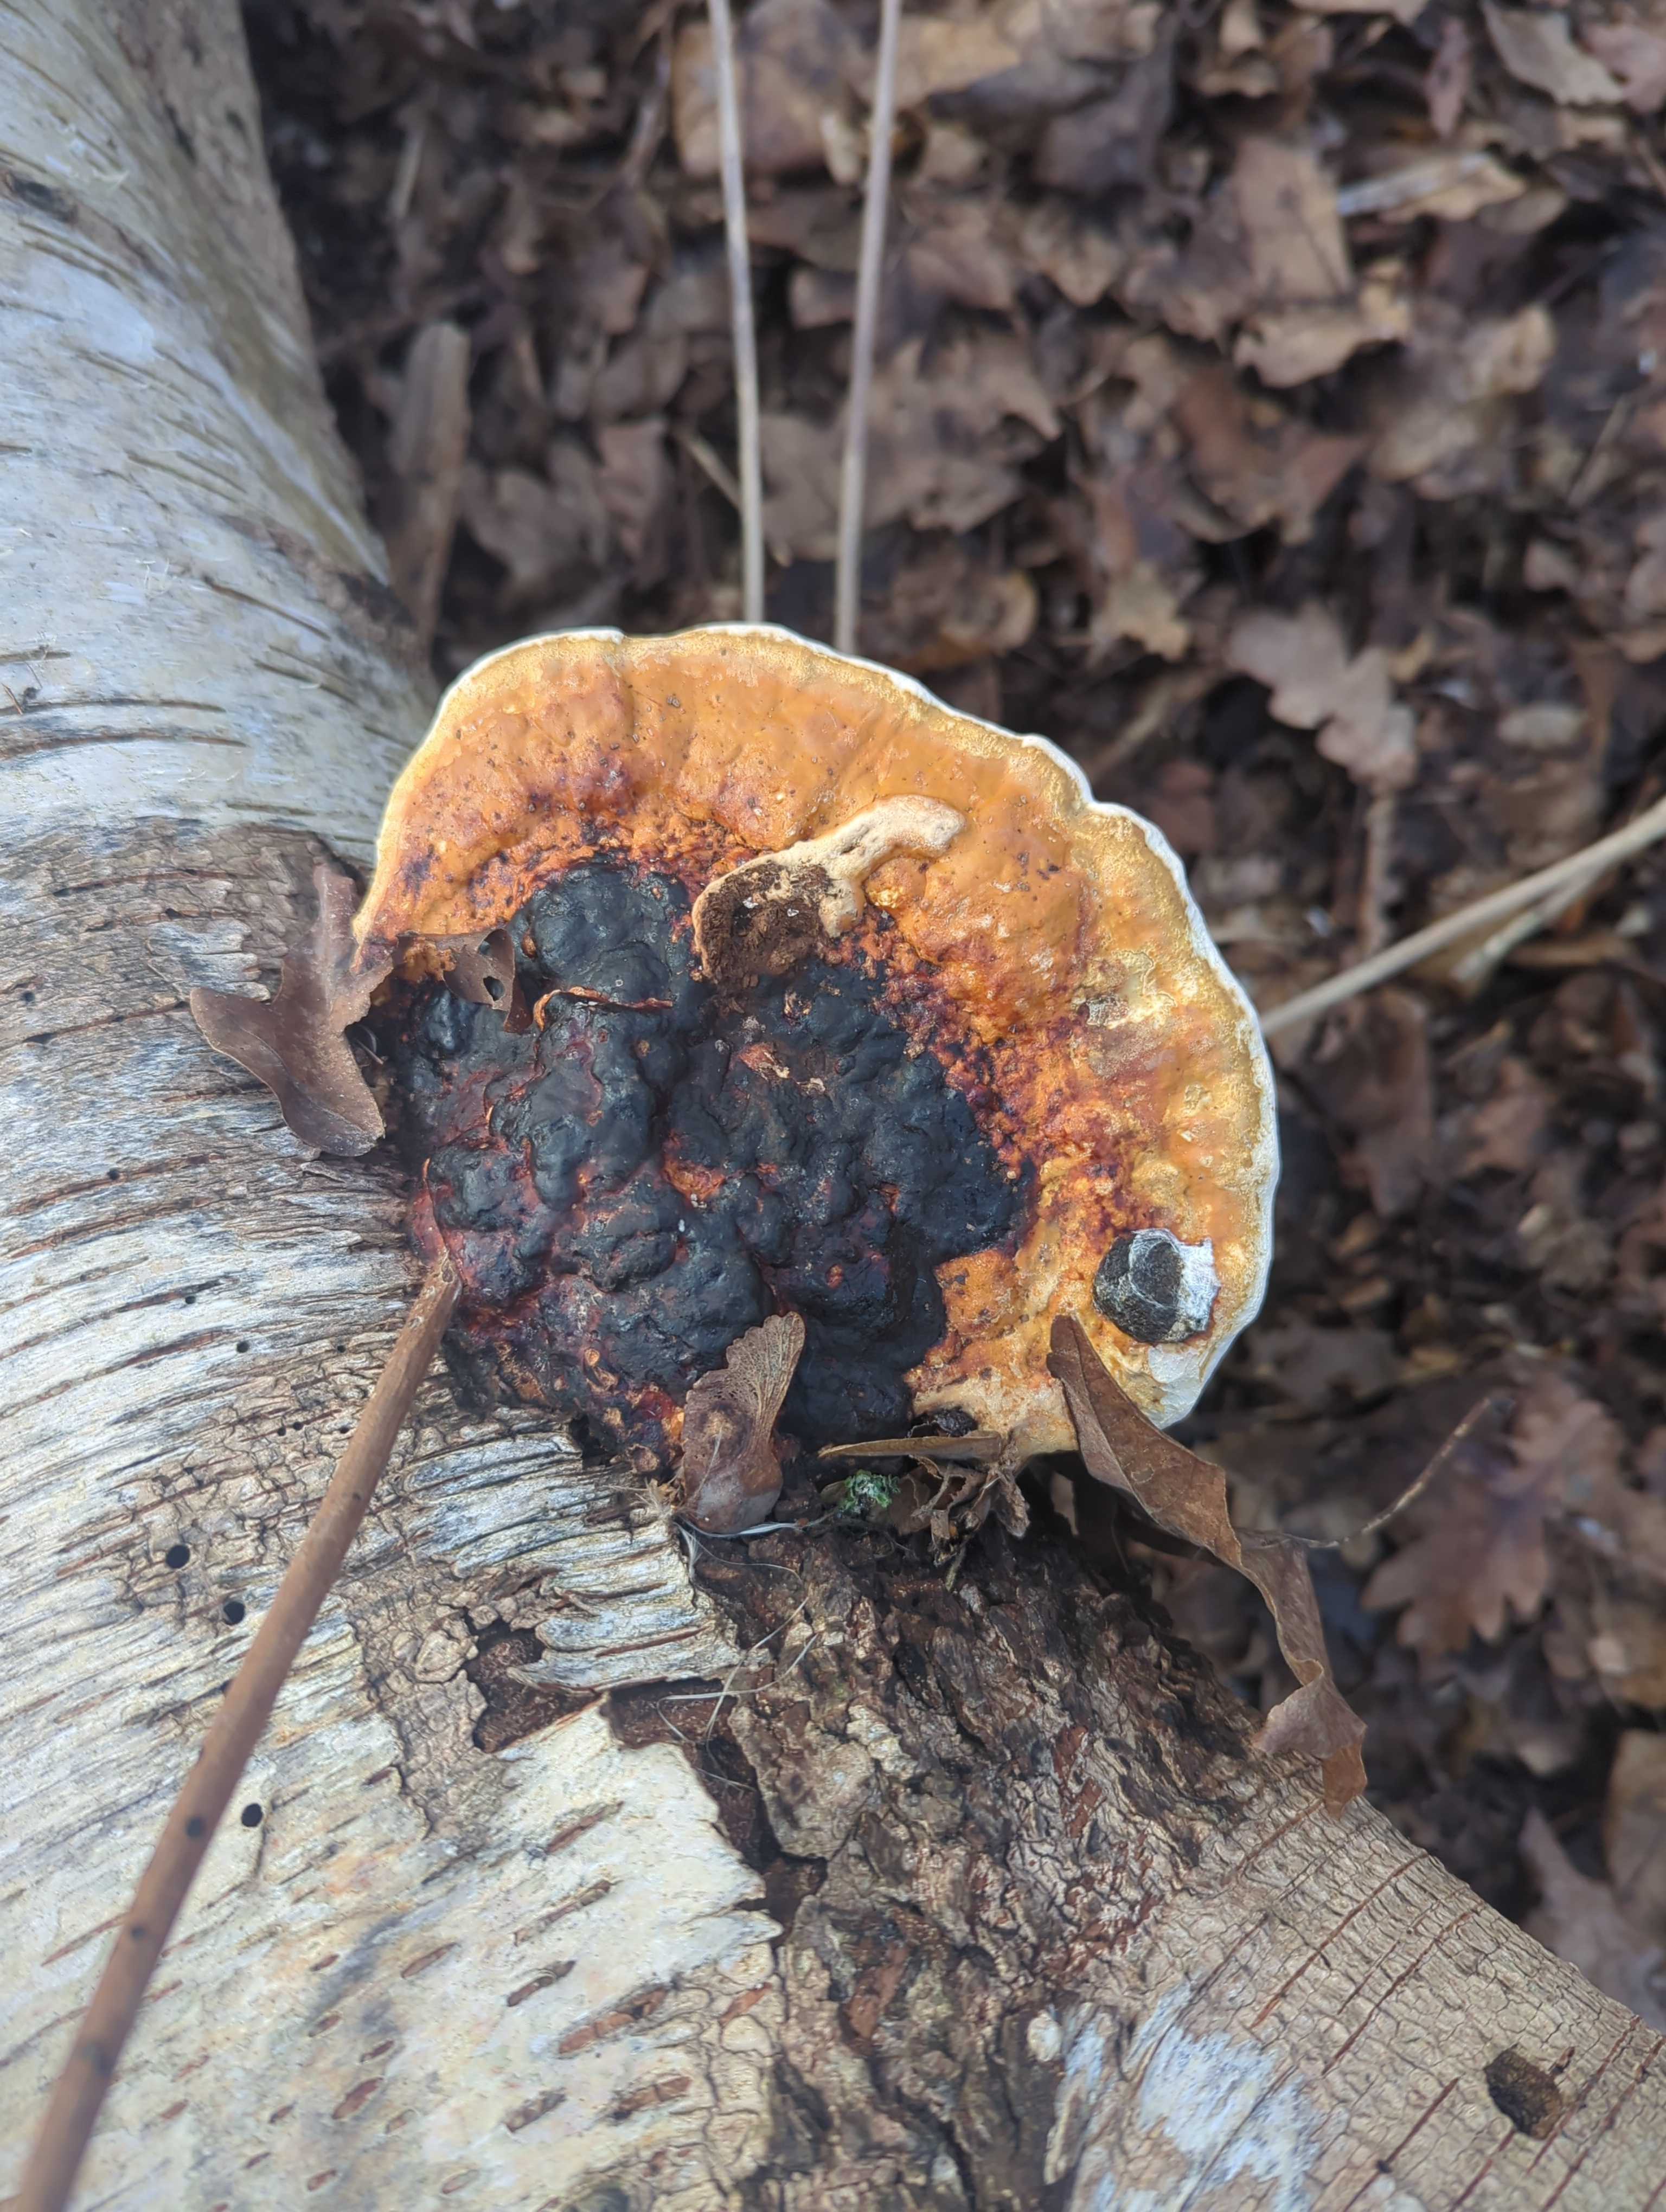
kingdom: Fungi
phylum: Basidiomycota
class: Agaricomycetes
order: Polyporales
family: Fomitopsidaceae
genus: Fomitopsis
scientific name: Fomitopsis pinicola
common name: randbæltet hovporesvamp
